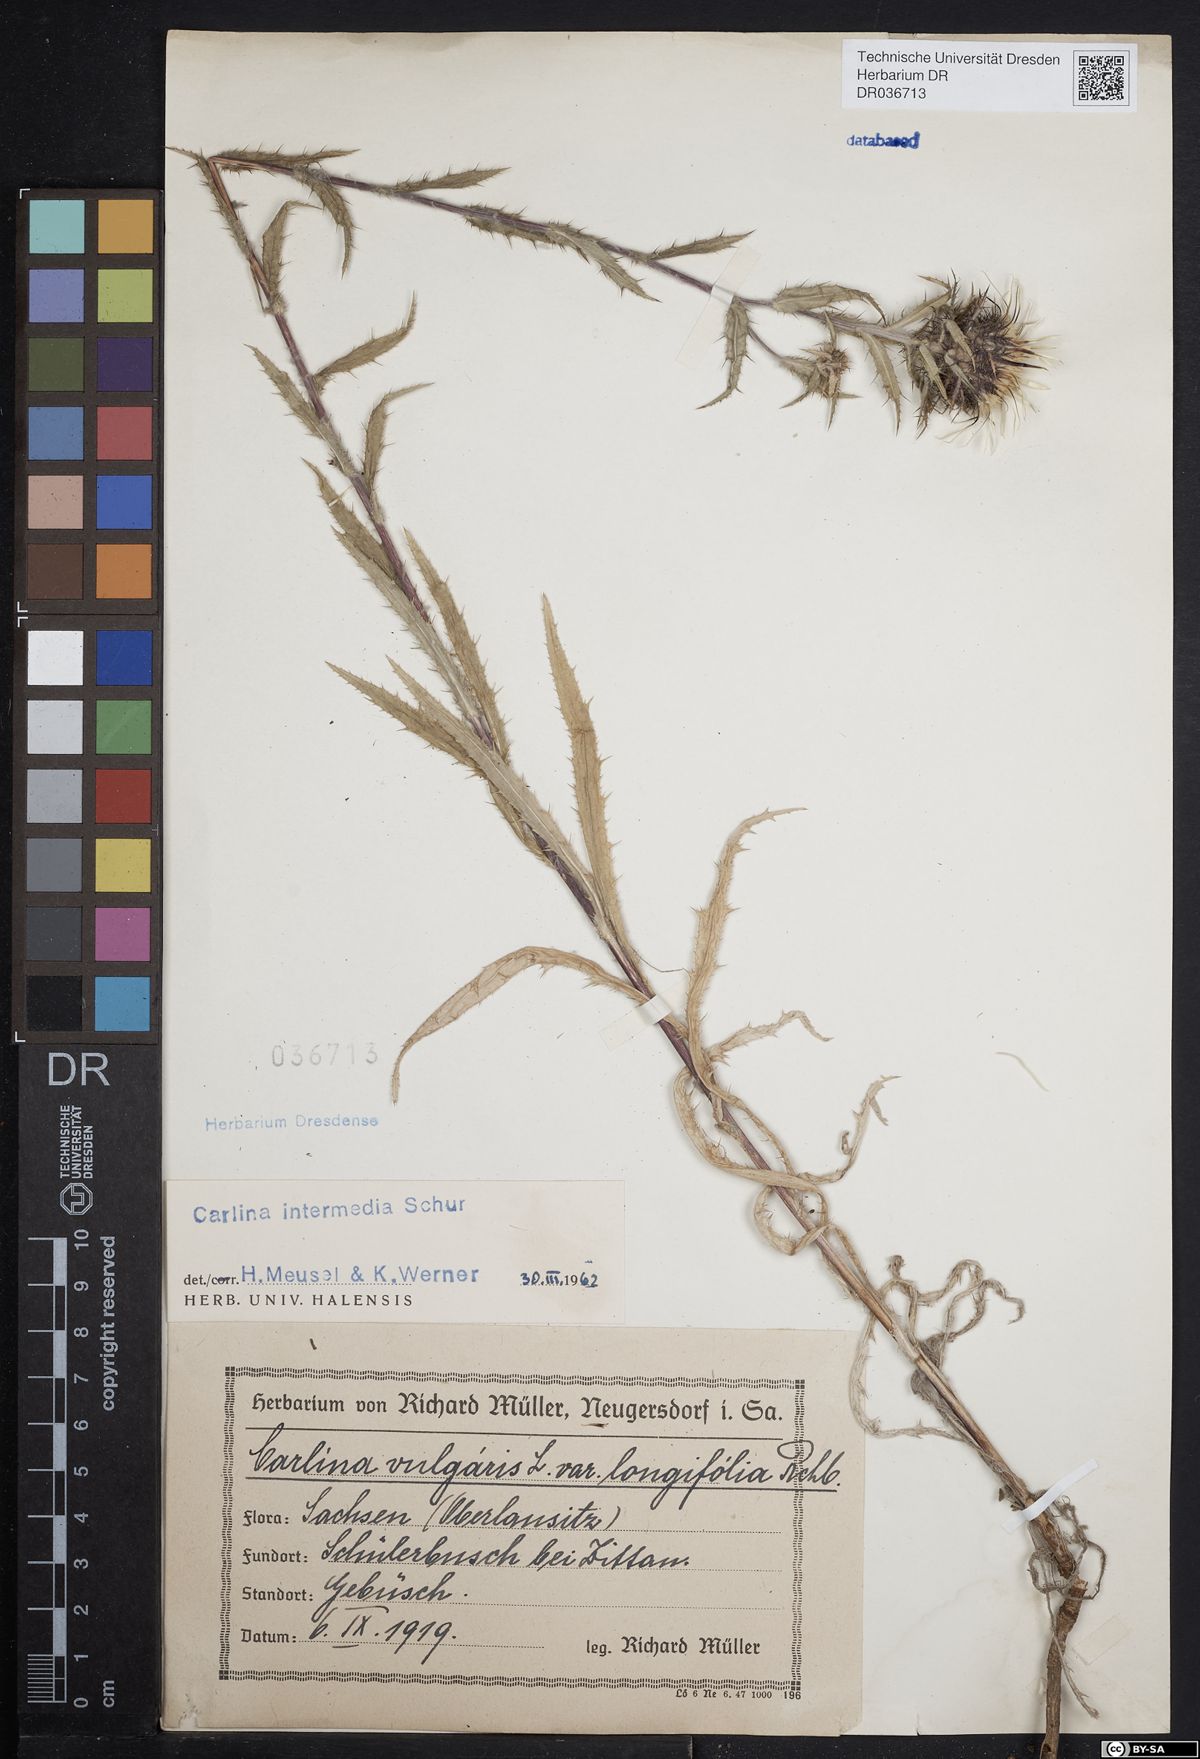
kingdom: Plantae
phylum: Tracheophyta
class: Magnoliopsida
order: Asterales
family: Asteraceae
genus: Carlina
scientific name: Carlina vulgaris
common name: Carline thistle
